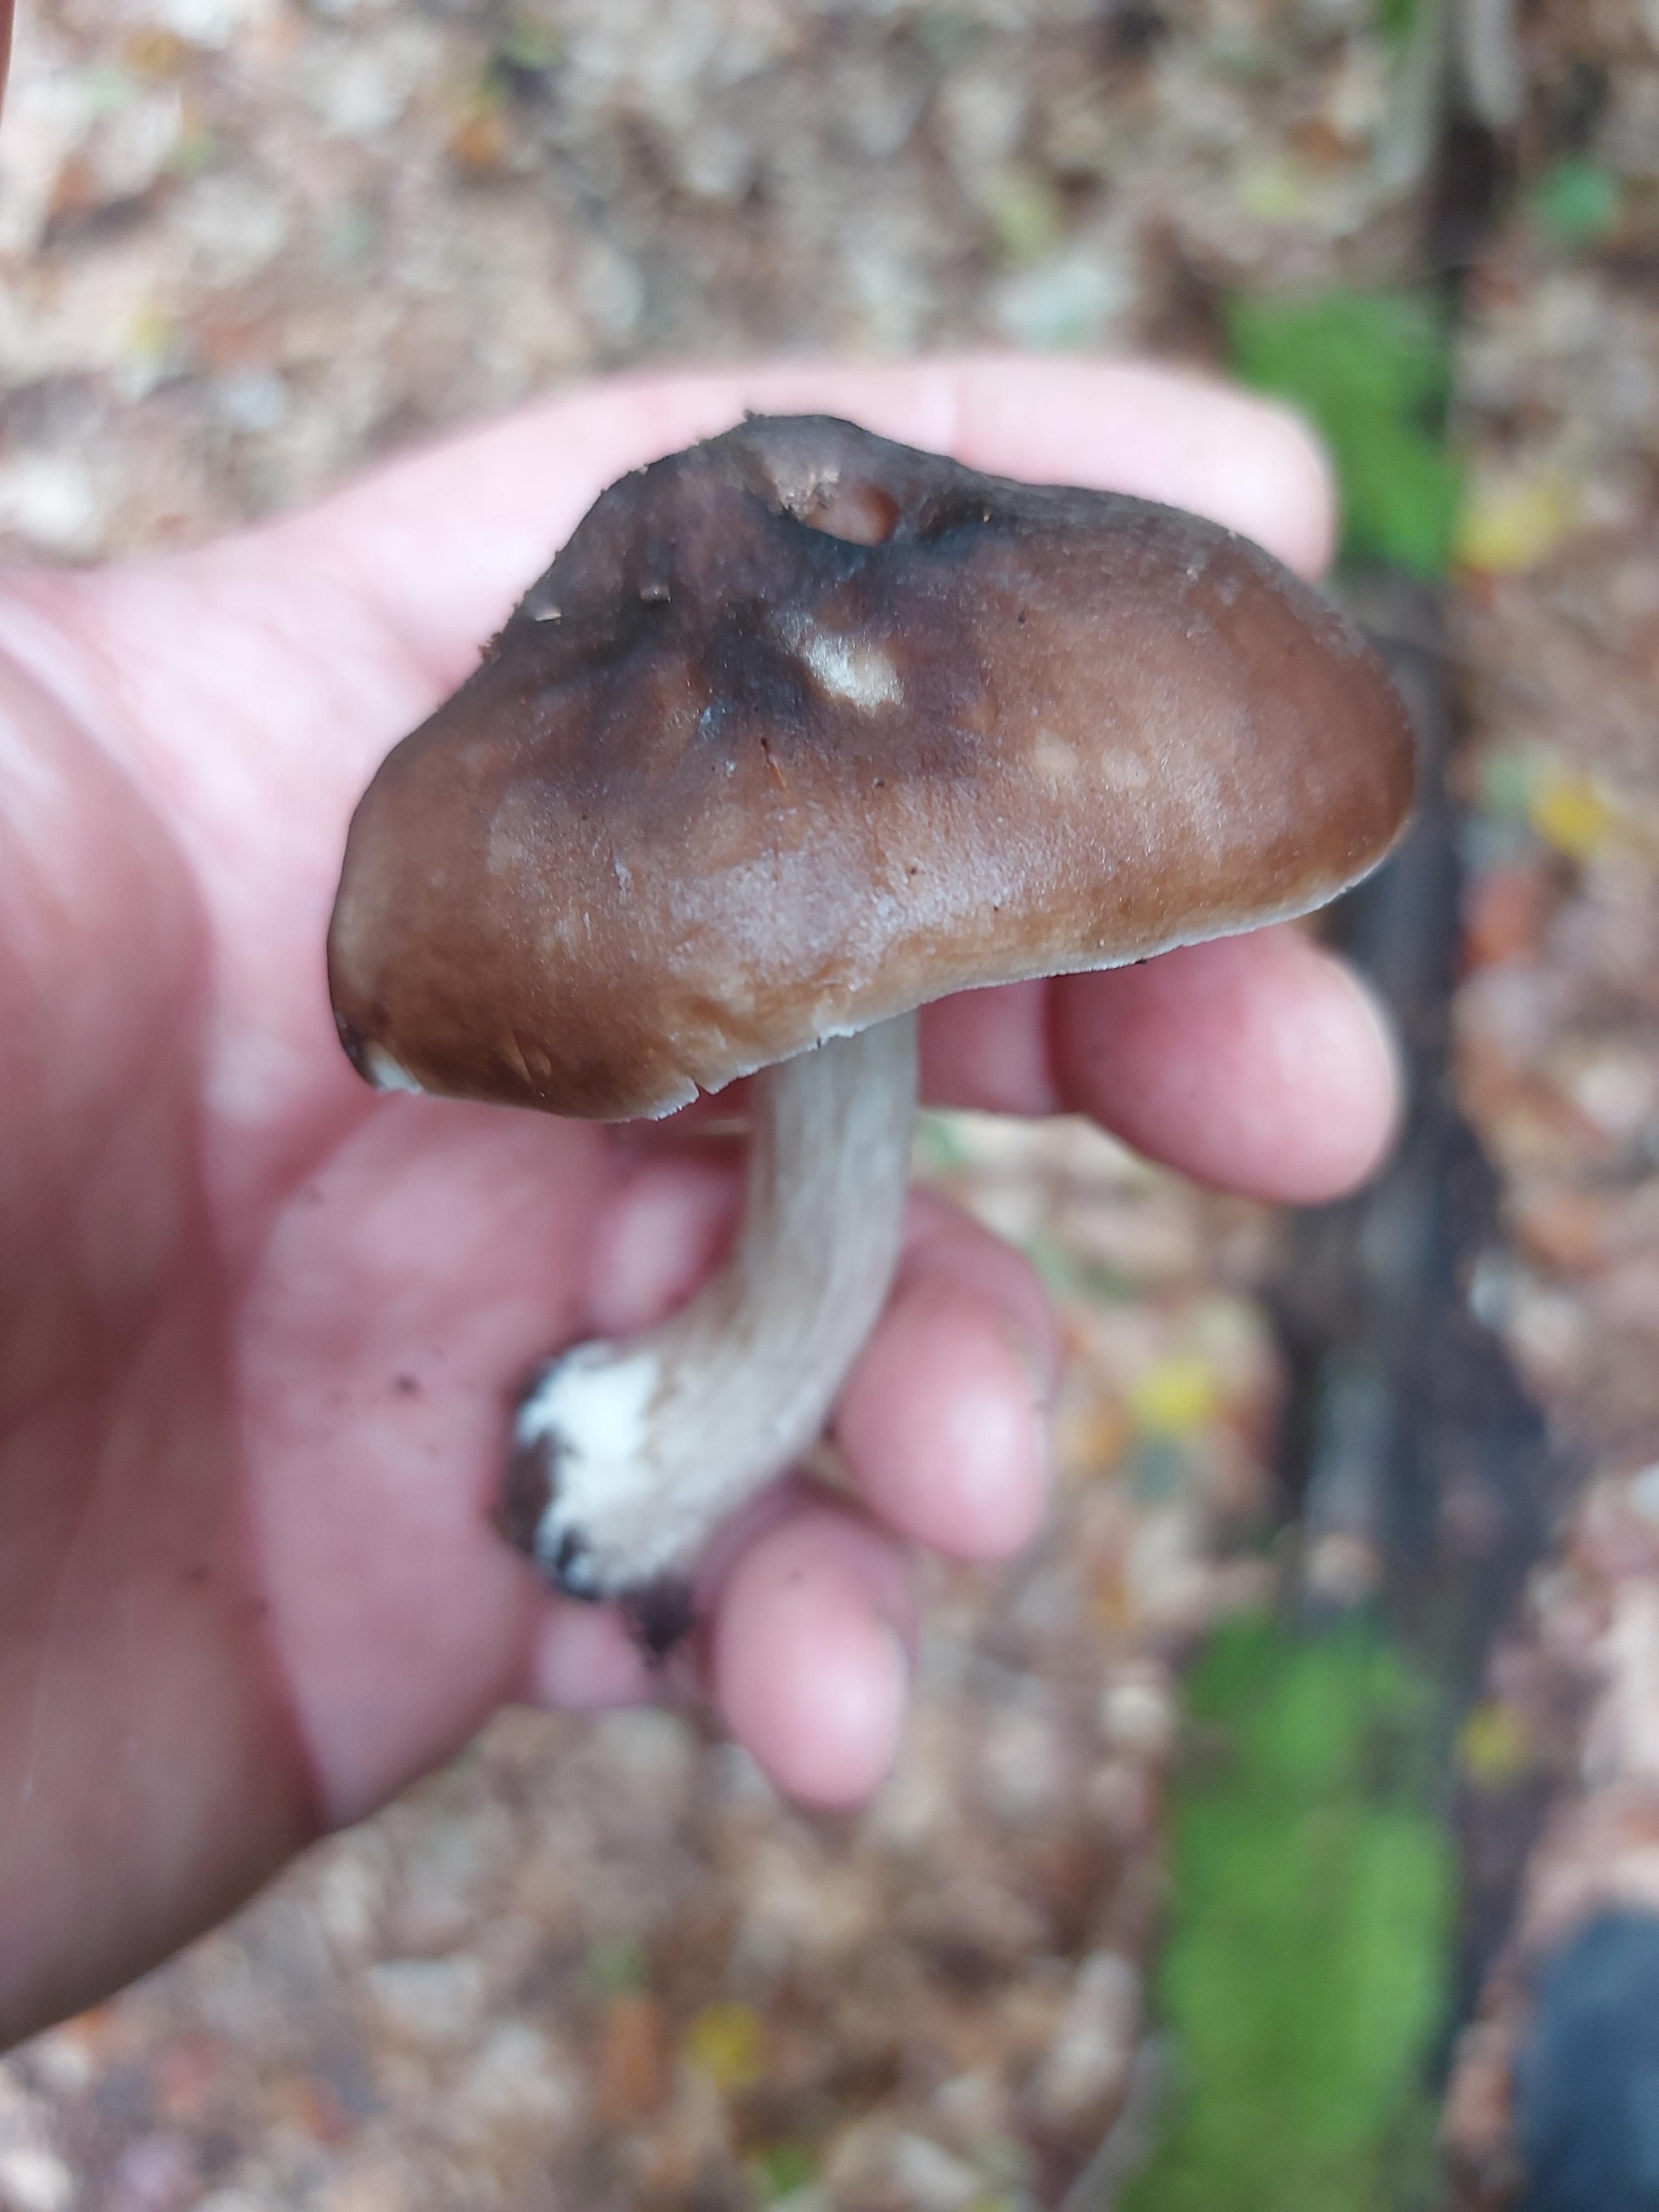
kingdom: Fungi
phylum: Basidiomycota
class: Agaricomycetes
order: Agaricales
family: Pluteaceae
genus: Pluteus
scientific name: Pluteus cervinus
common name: sodfarvet skærmhat
